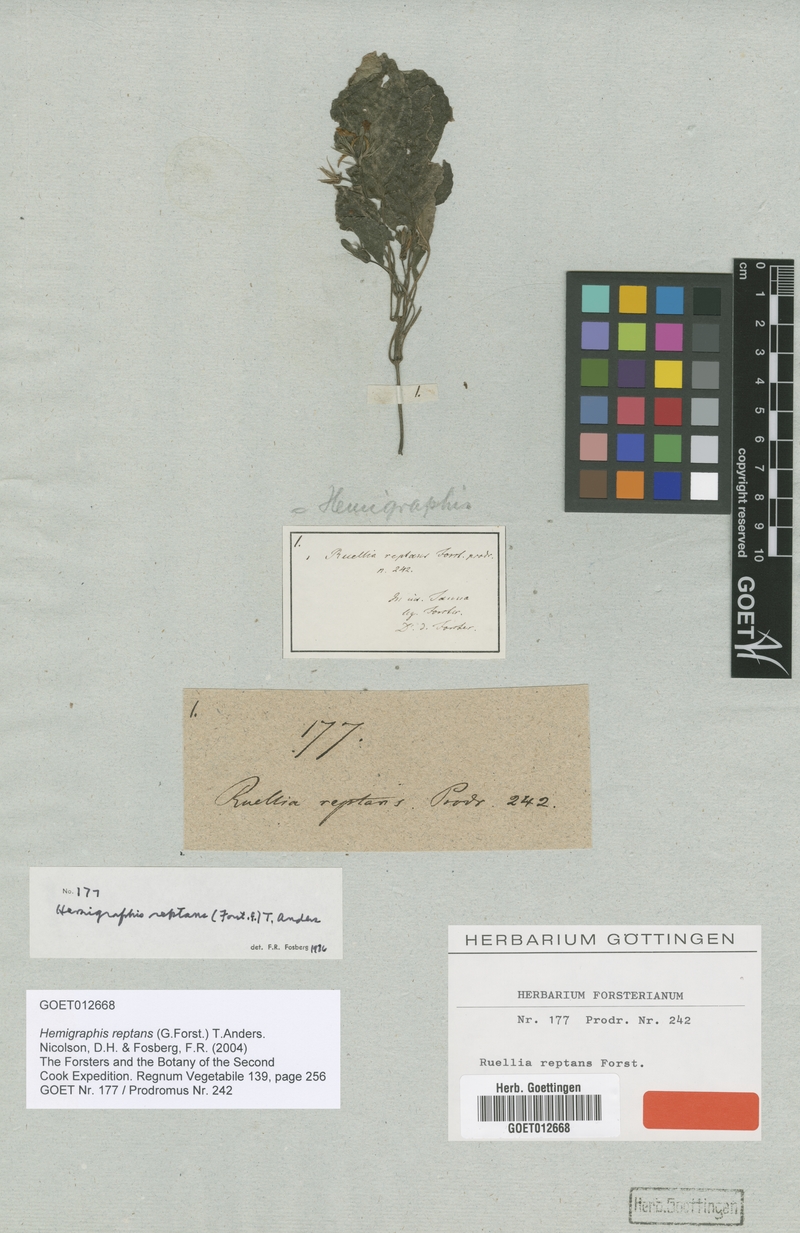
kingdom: Plantae
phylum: Tracheophyta
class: Magnoliopsida
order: Lamiales
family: Acanthaceae
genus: Strobilanthes
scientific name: Strobilanthes reptans
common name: Acanthaceae
